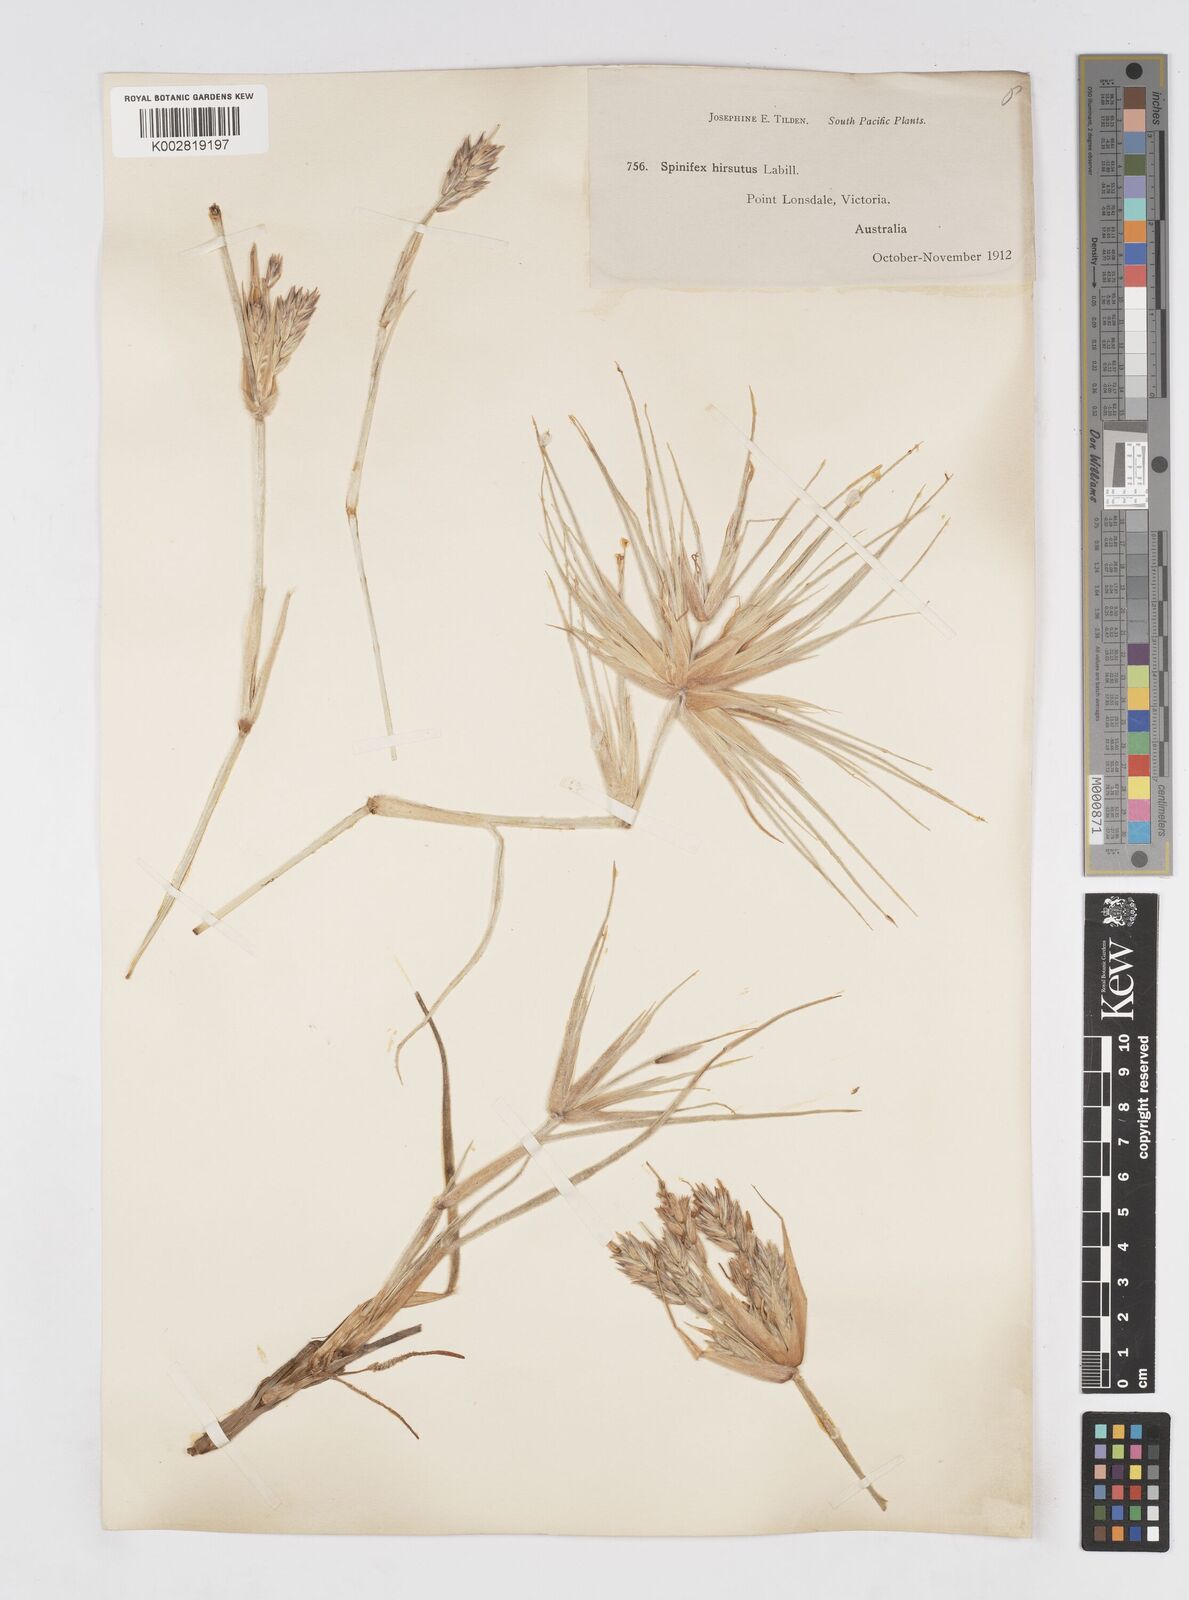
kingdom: Plantae
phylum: Tracheophyta
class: Liliopsida
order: Poales
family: Poaceae
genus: Spinifex
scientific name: Spinifex sericeus
